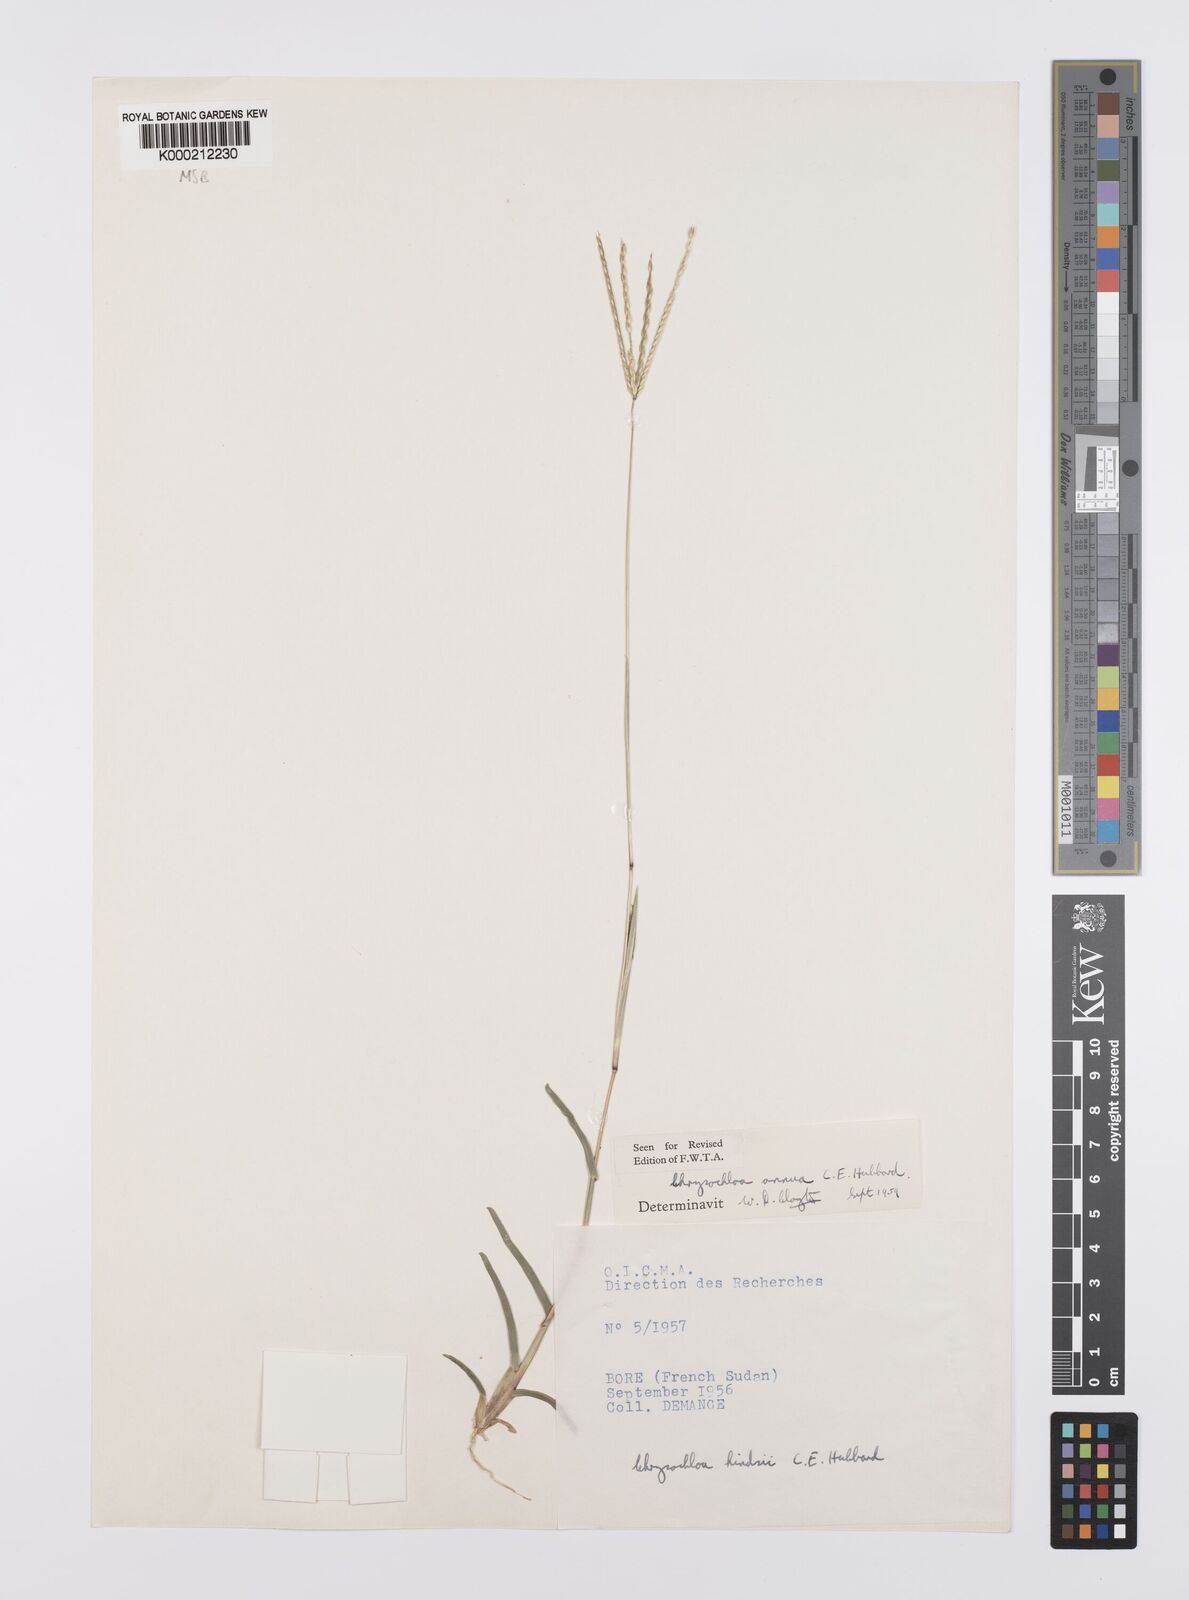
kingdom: Plantae
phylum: Tracheophyta
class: Liliopsida
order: Poales
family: Poaceae
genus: Chrysochloa
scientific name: Chrysochloa hindsii
